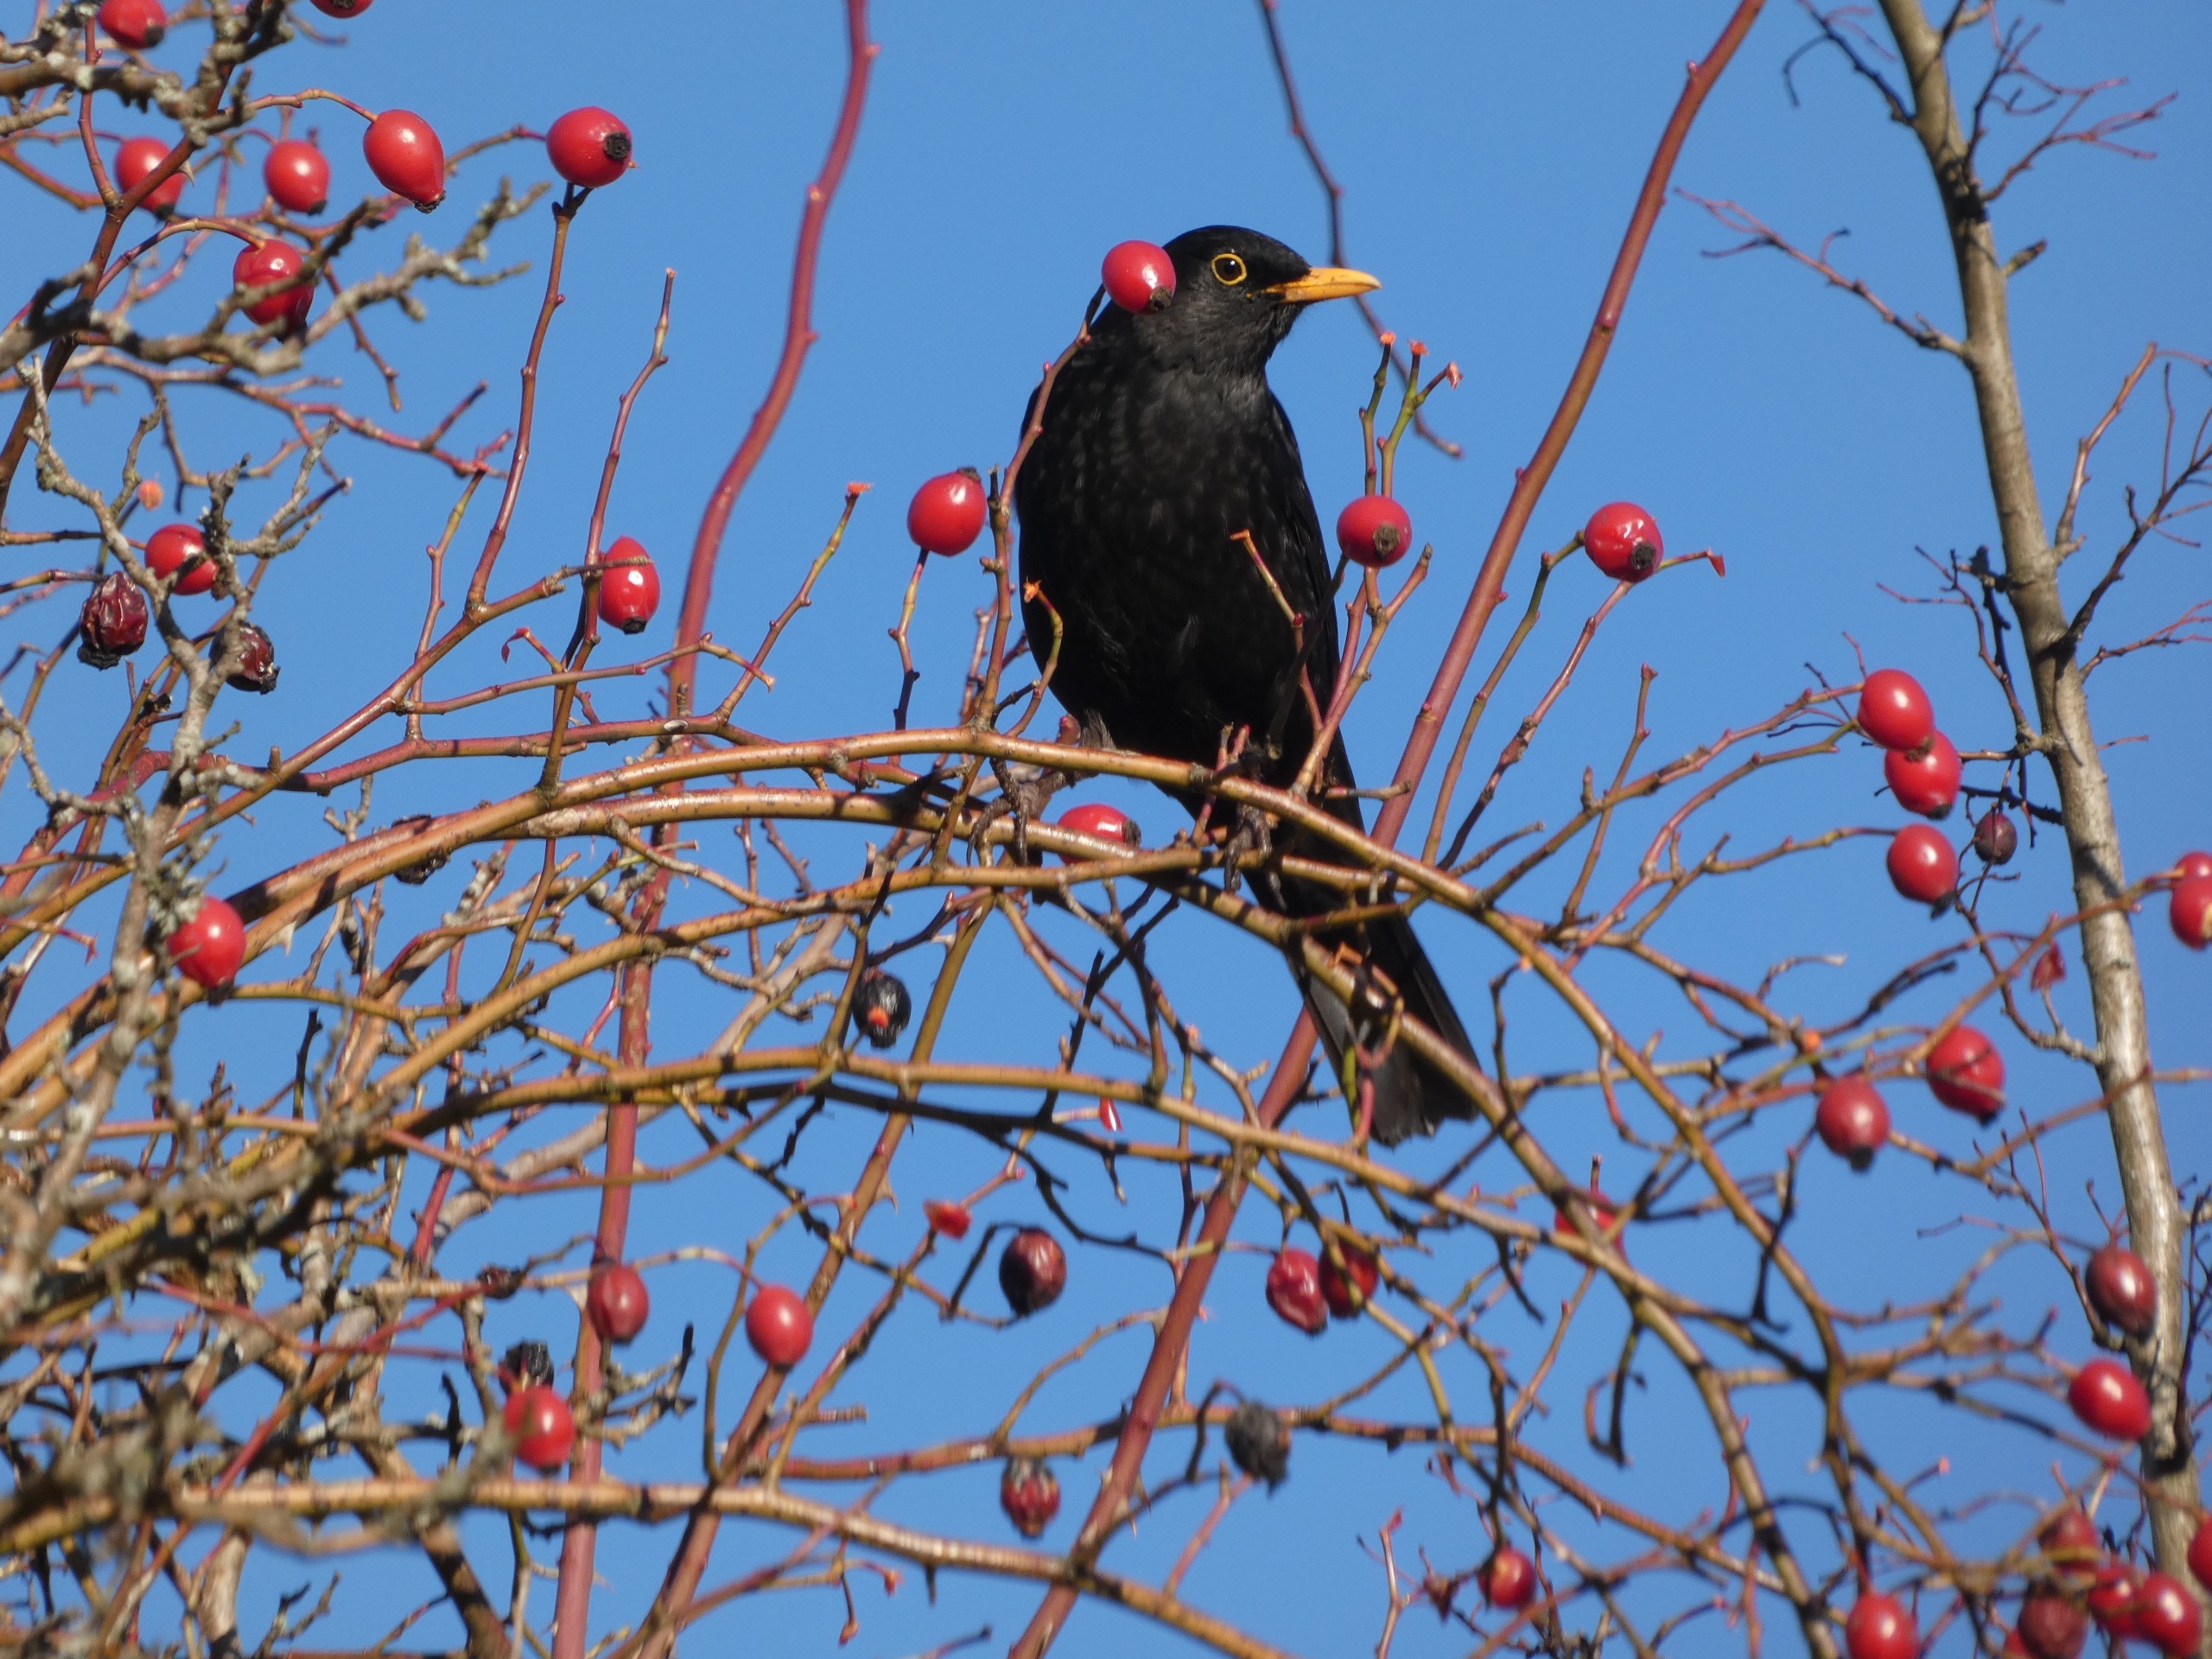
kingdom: Animalia
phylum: Chordata
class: Aves
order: Passeriformes
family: Turdidae
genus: Turdus
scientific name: Turdus merula
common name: Solsort
